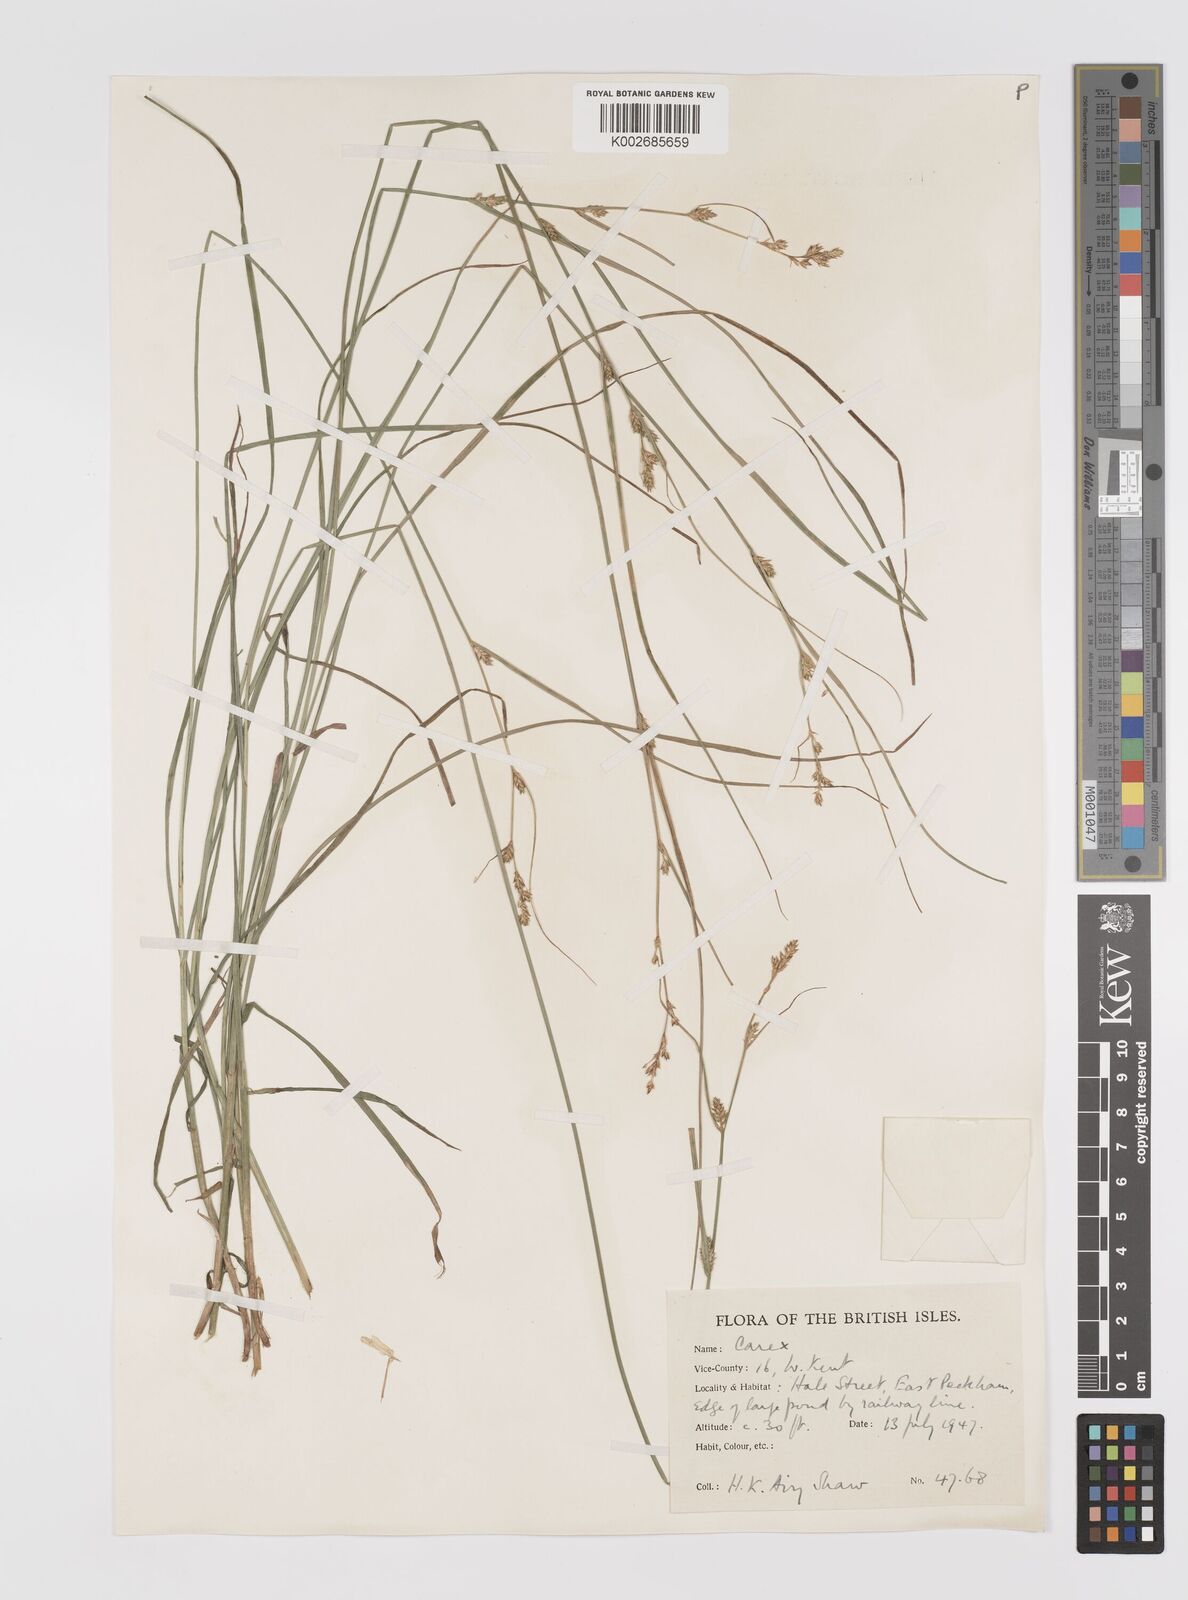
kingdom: Plantae
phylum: Tracheophyta
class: Liliopsida
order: Poales
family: Cyperaceae
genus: Carex
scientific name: Carex balansae
